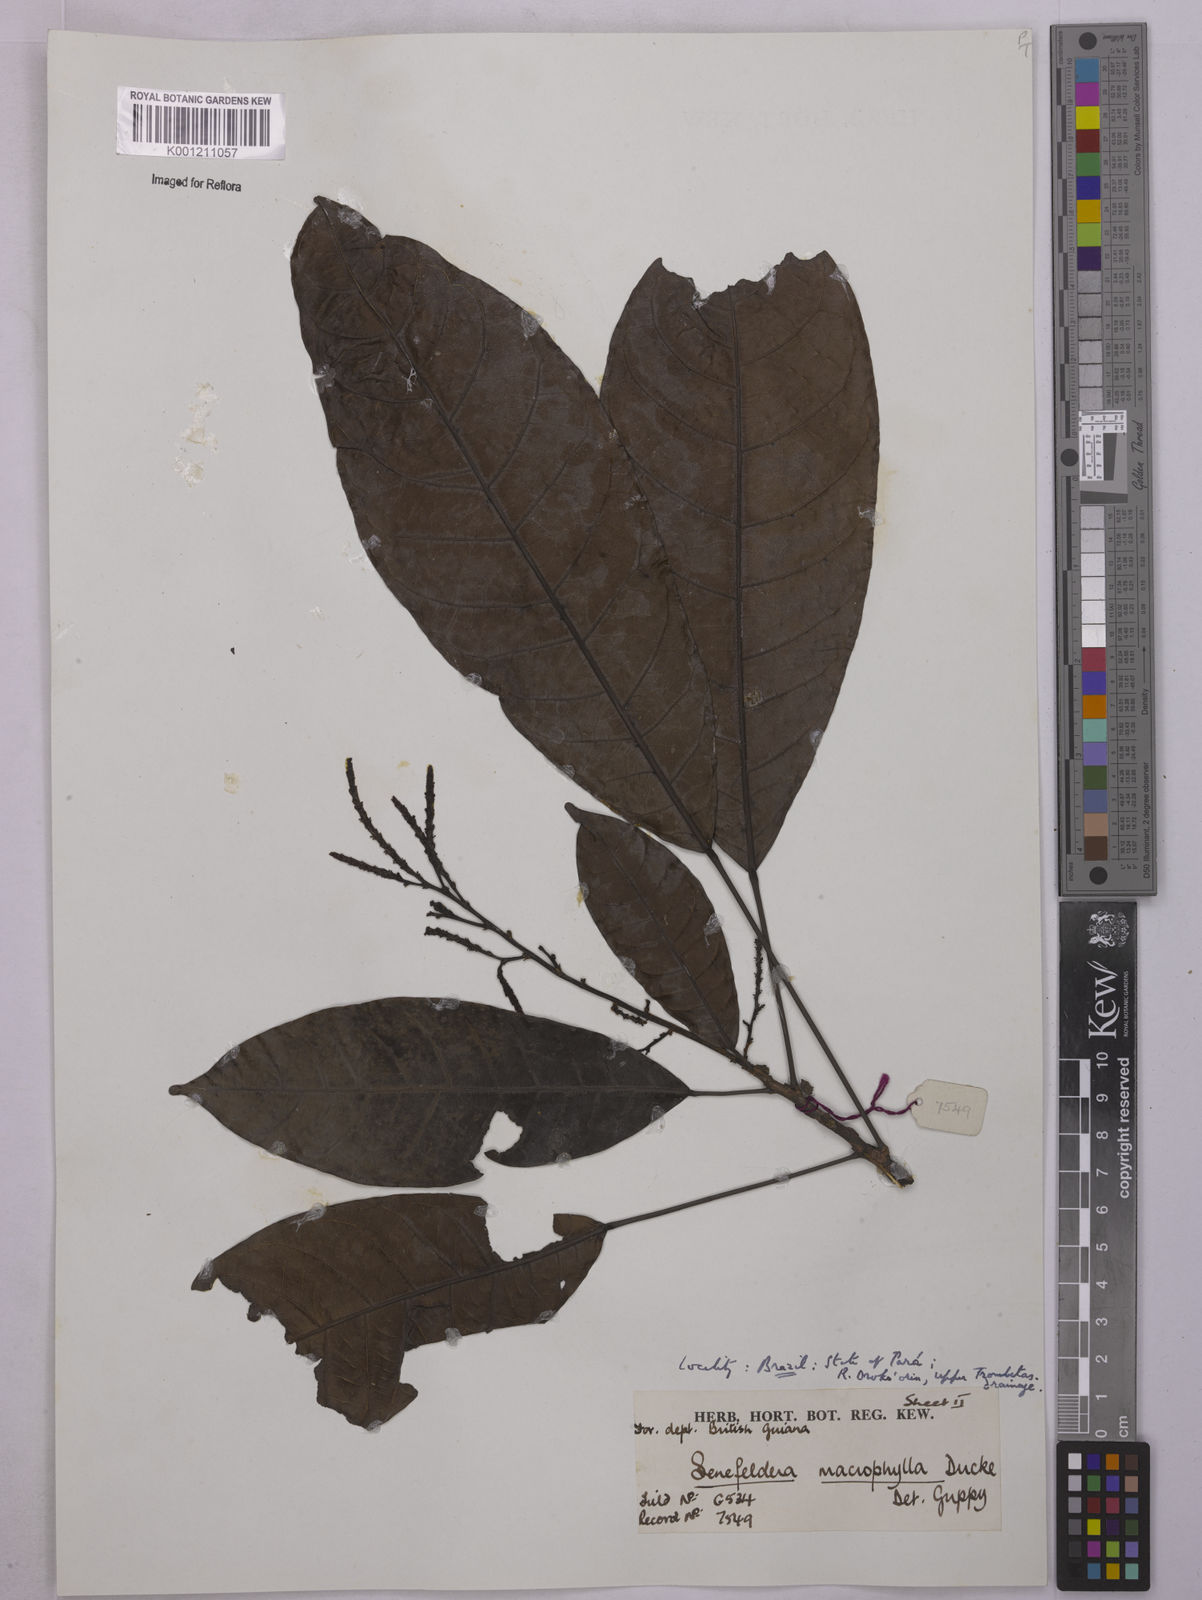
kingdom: Plantae
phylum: Tracheophyta
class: Magnoliopsida
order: Malpighiales
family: Euphorbiaceae
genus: Rhodothyrsus
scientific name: Rhodothyrsus macrophyllus
